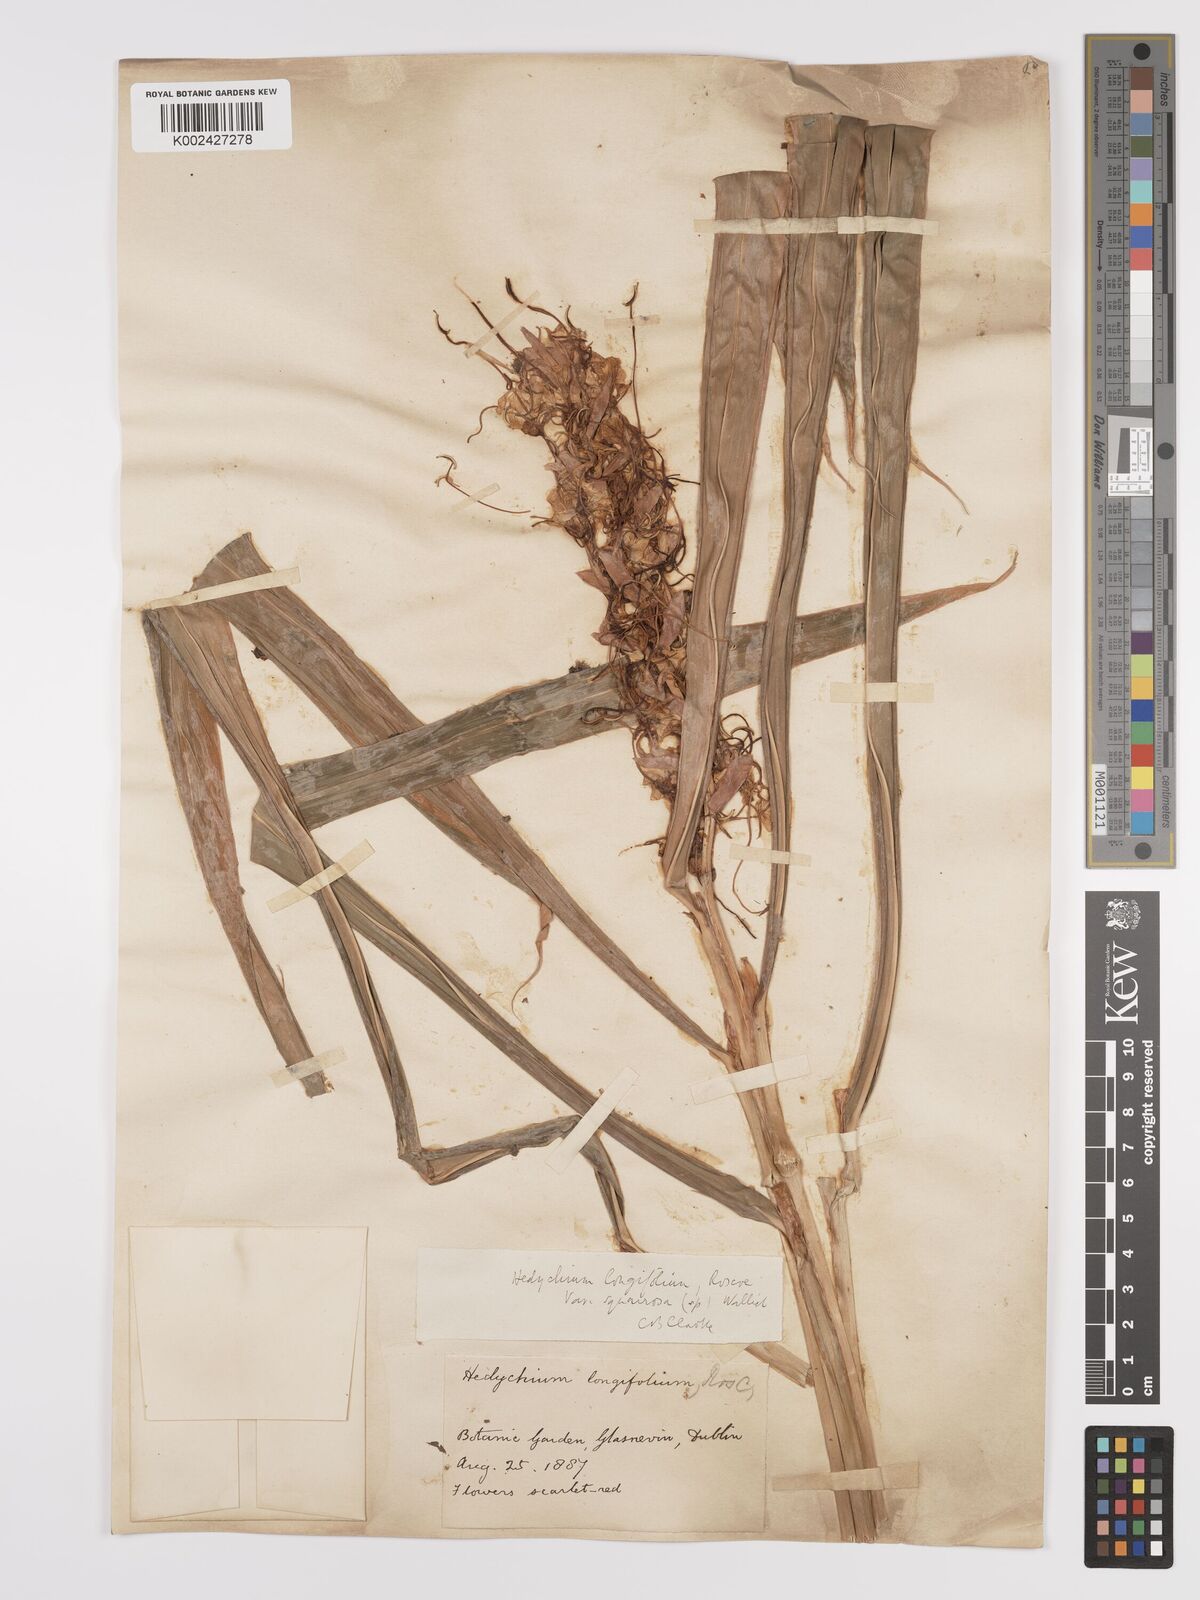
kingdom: Plantae
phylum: Tracheophyta
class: Liliopsida
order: Zingiberales
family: Zingiberaceae
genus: Hedychium
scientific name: Hedychium coccineum
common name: Red ginger-lily
